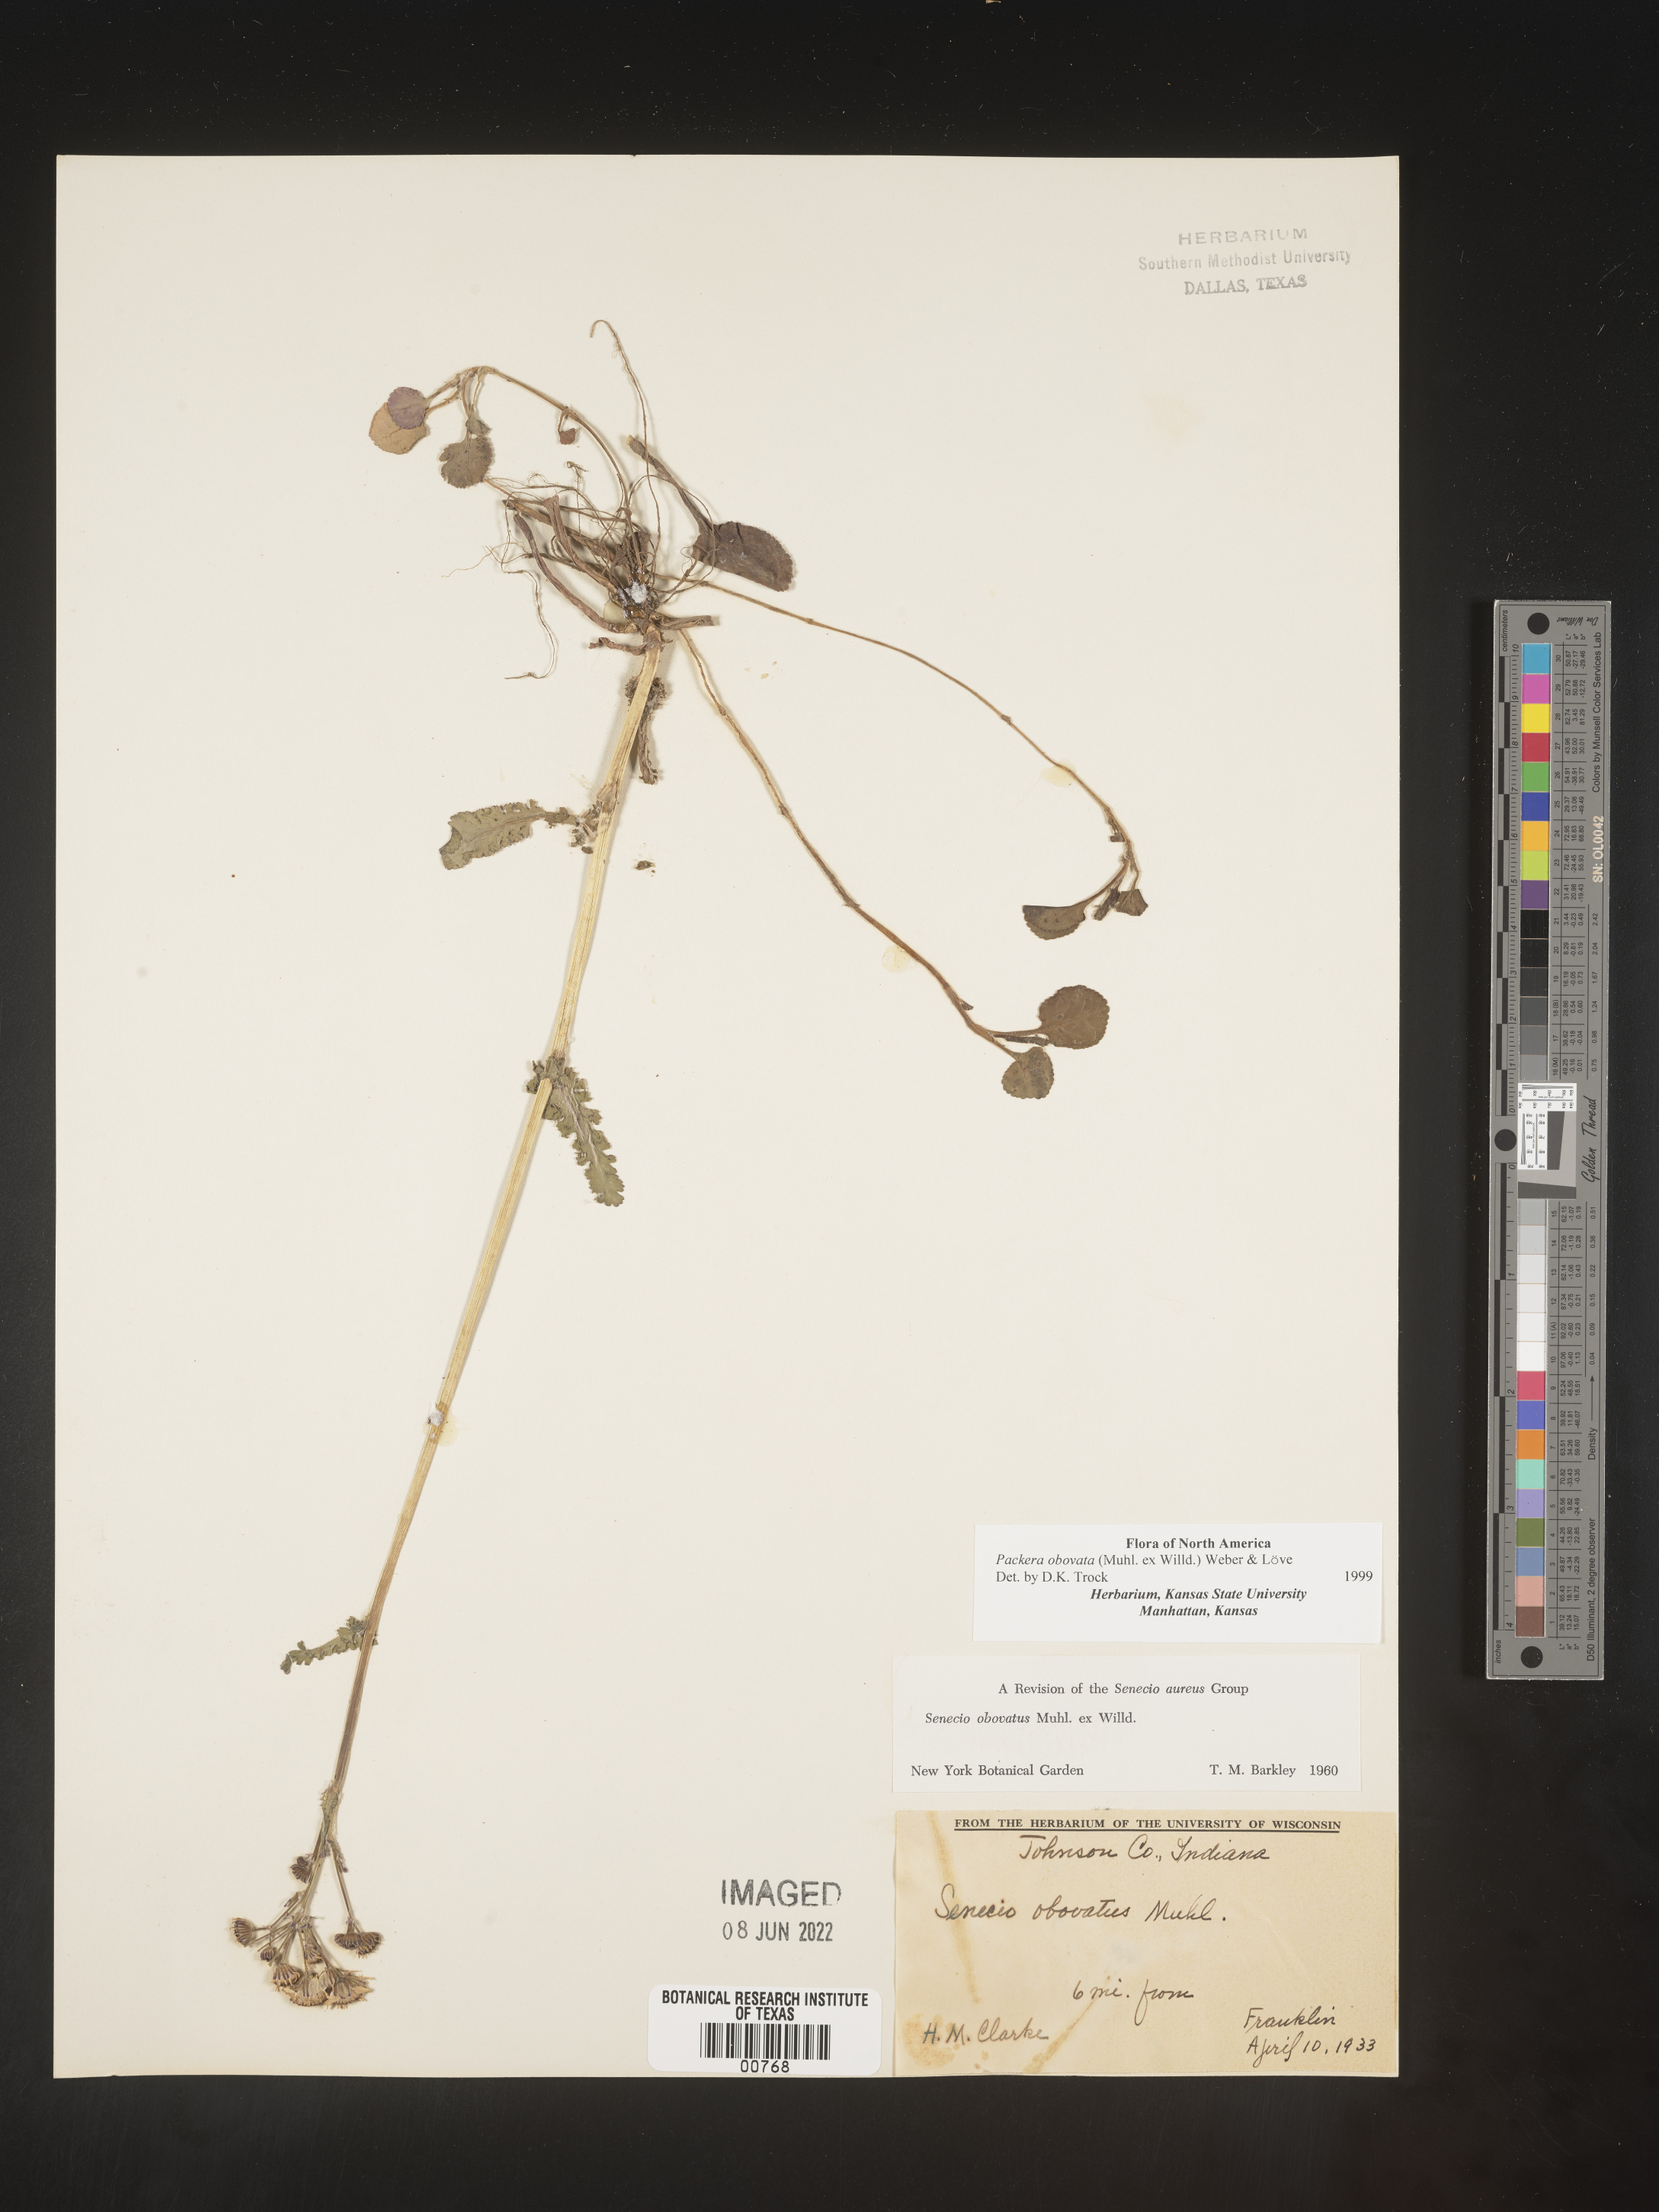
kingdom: Plantae
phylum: Tracheophyta
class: Magnoliopsida
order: Asterales
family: Asteraceae
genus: Packera
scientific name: Packera obovata
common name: Round-leaf ragwort
